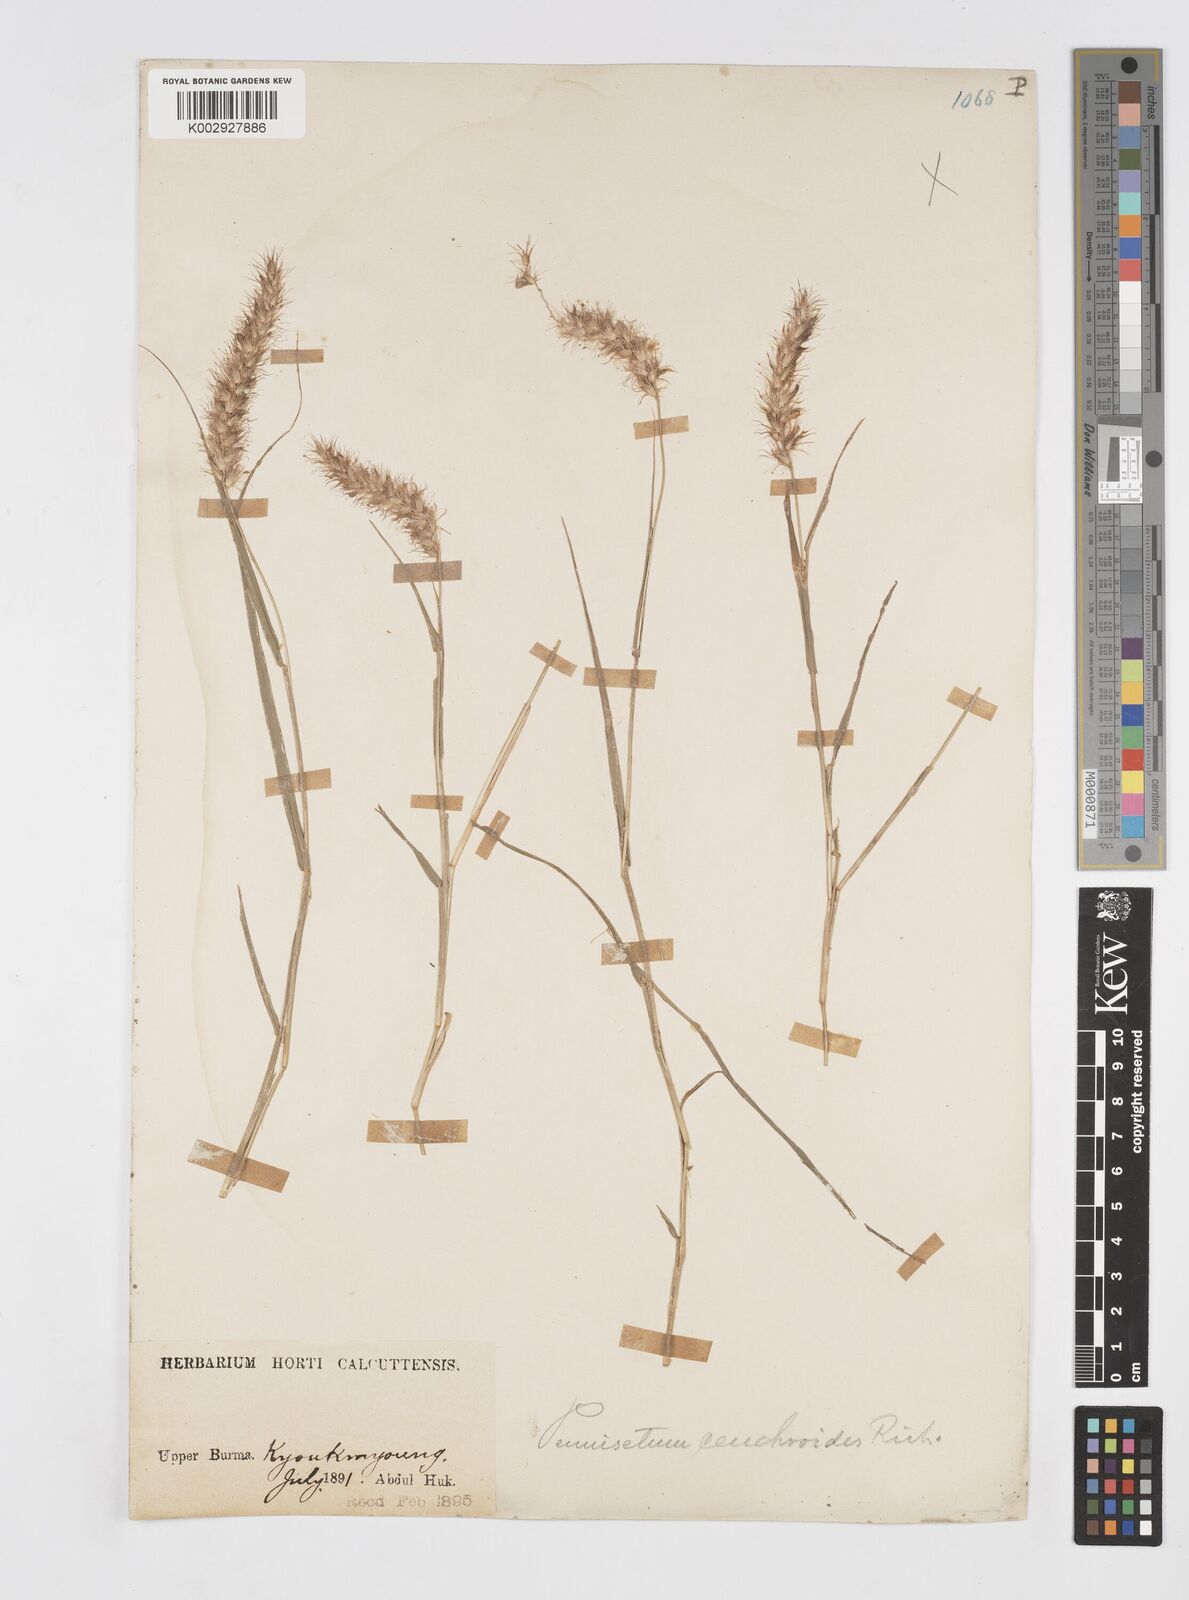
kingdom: Plantae
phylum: Tracheophyta
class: Liliopsida
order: Poales
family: Poaceae
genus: Cenchrus
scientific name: Cenchrus
